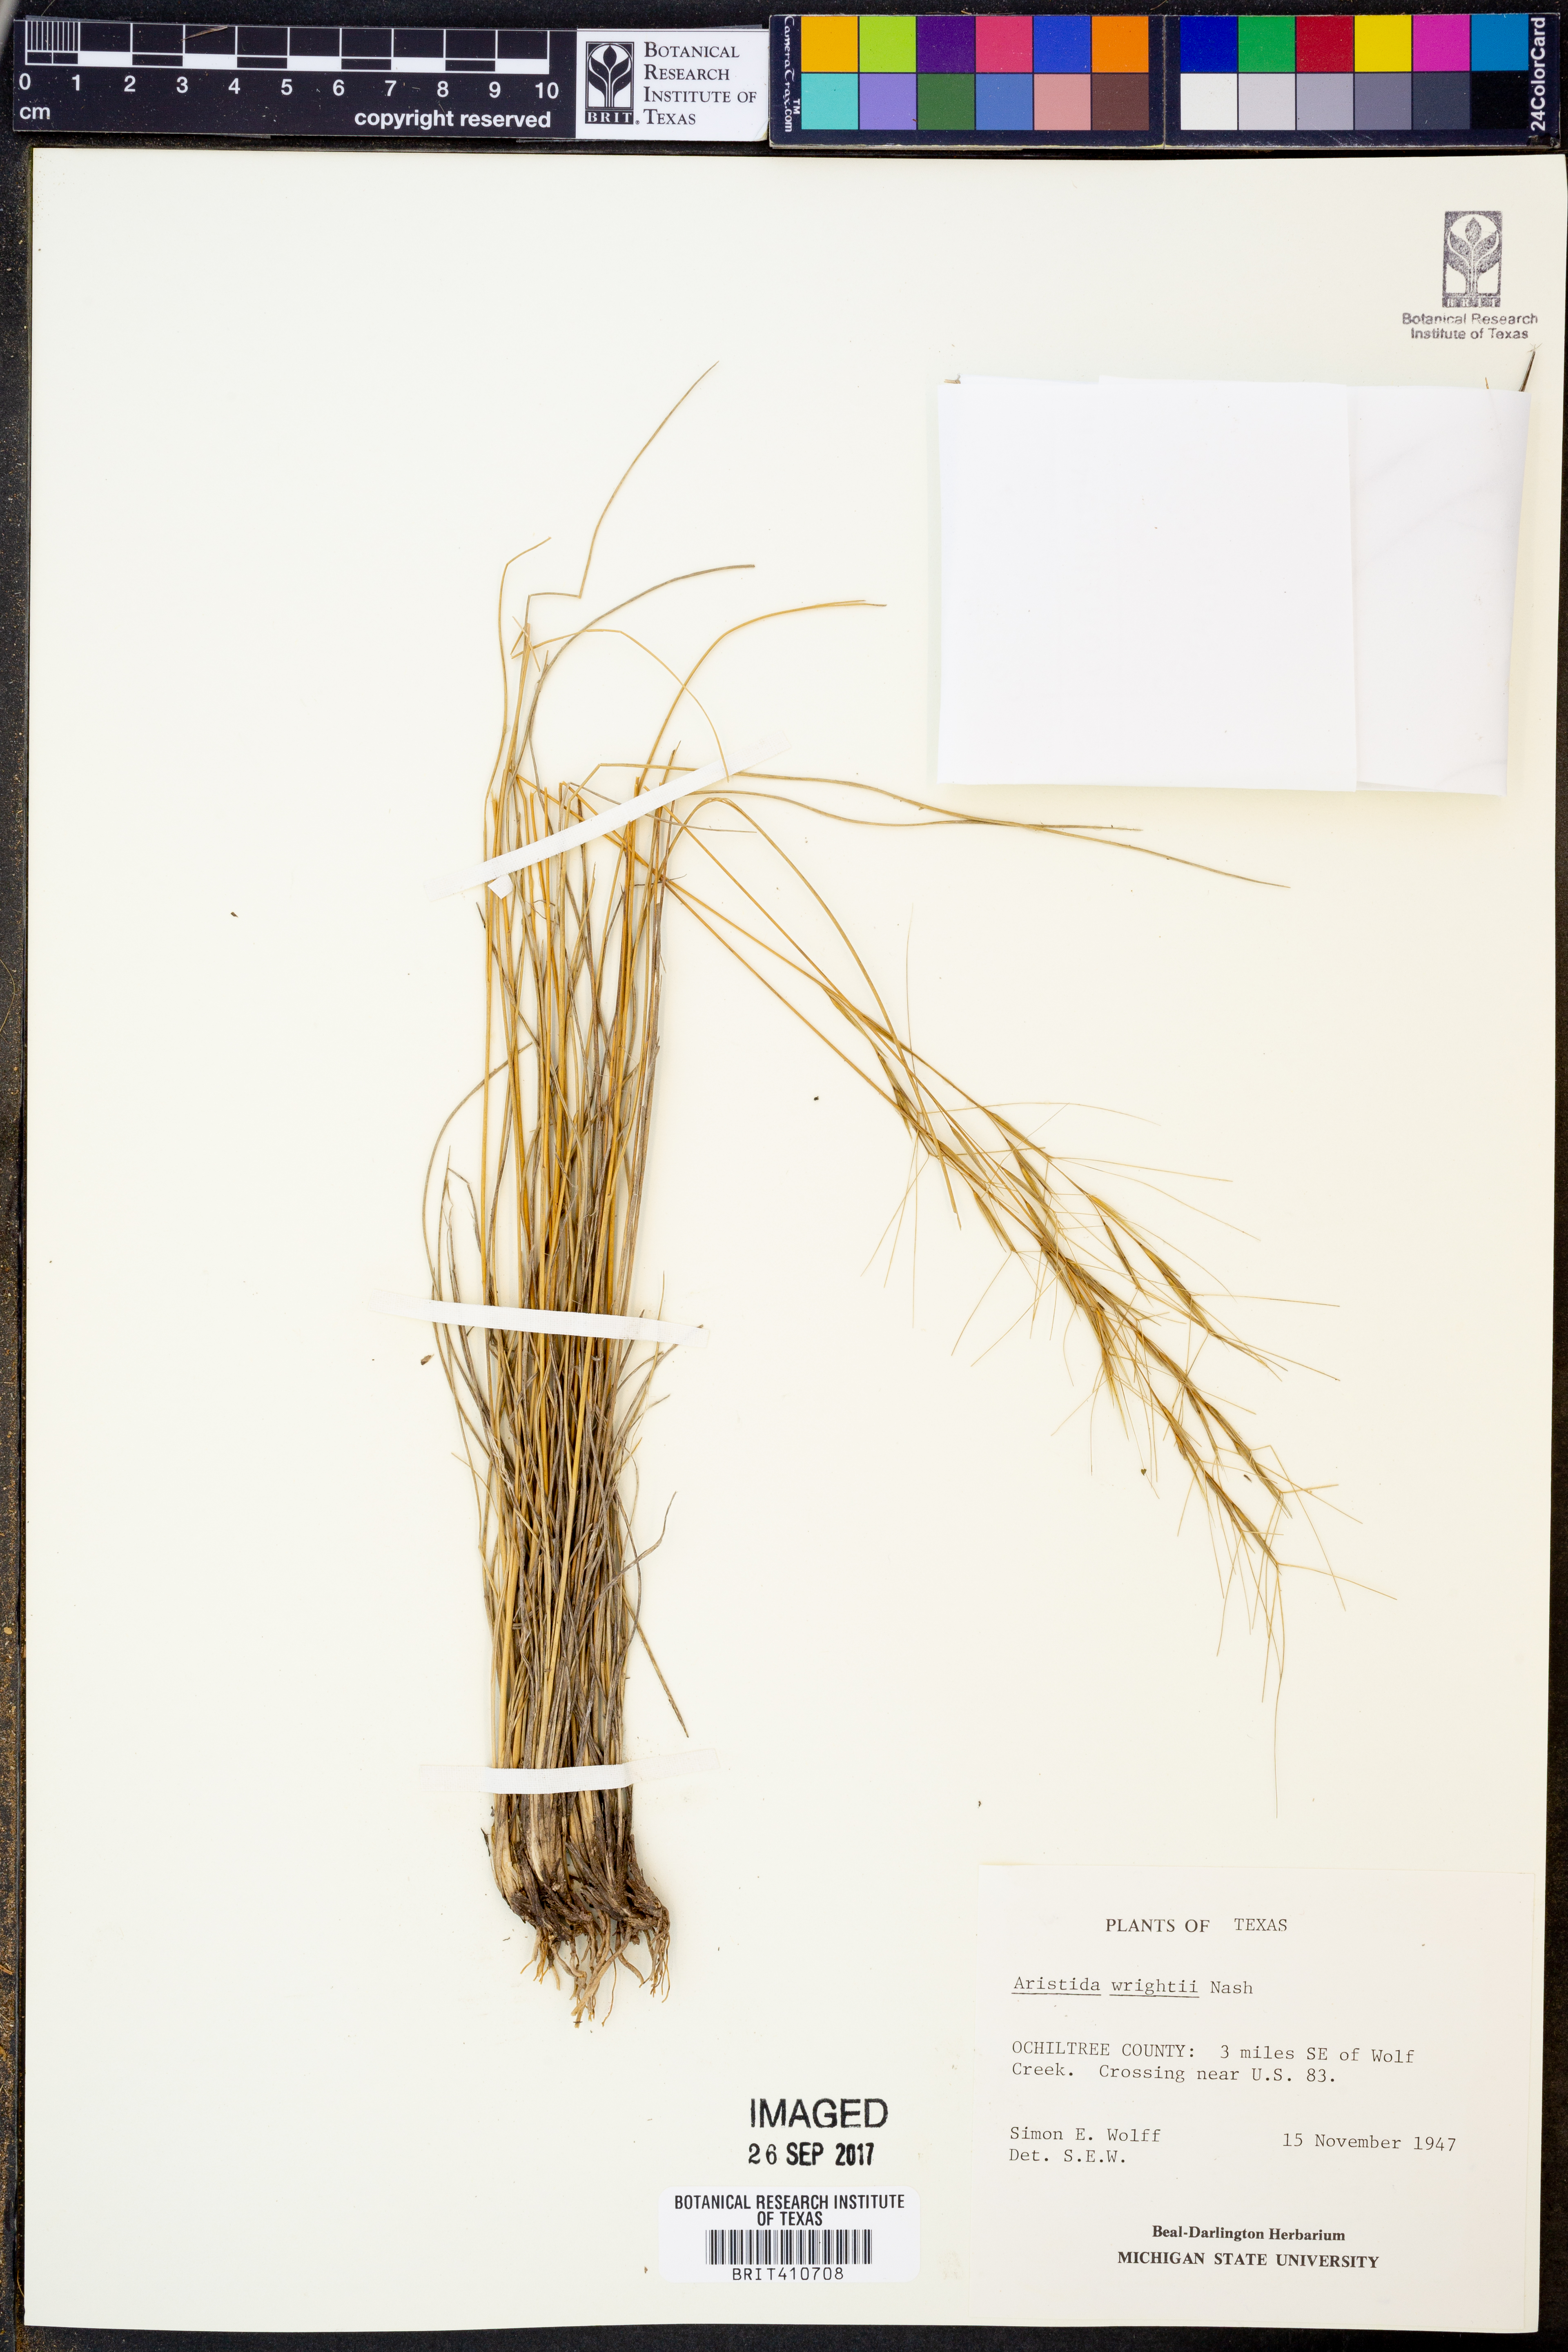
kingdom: Plantae
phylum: Tracheophyta
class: Liliopsida
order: Poales
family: Poaceae
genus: Aristida
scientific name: Aristida wrightii
